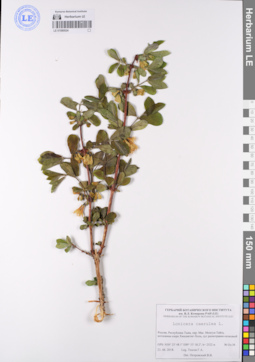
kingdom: Plantae
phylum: Tracheophyta
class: Magnoliopsida
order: Dipsacales
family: Caprifoliaceae
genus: Lonicera
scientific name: Lonicera caerulea
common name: Blue honeysuckle
